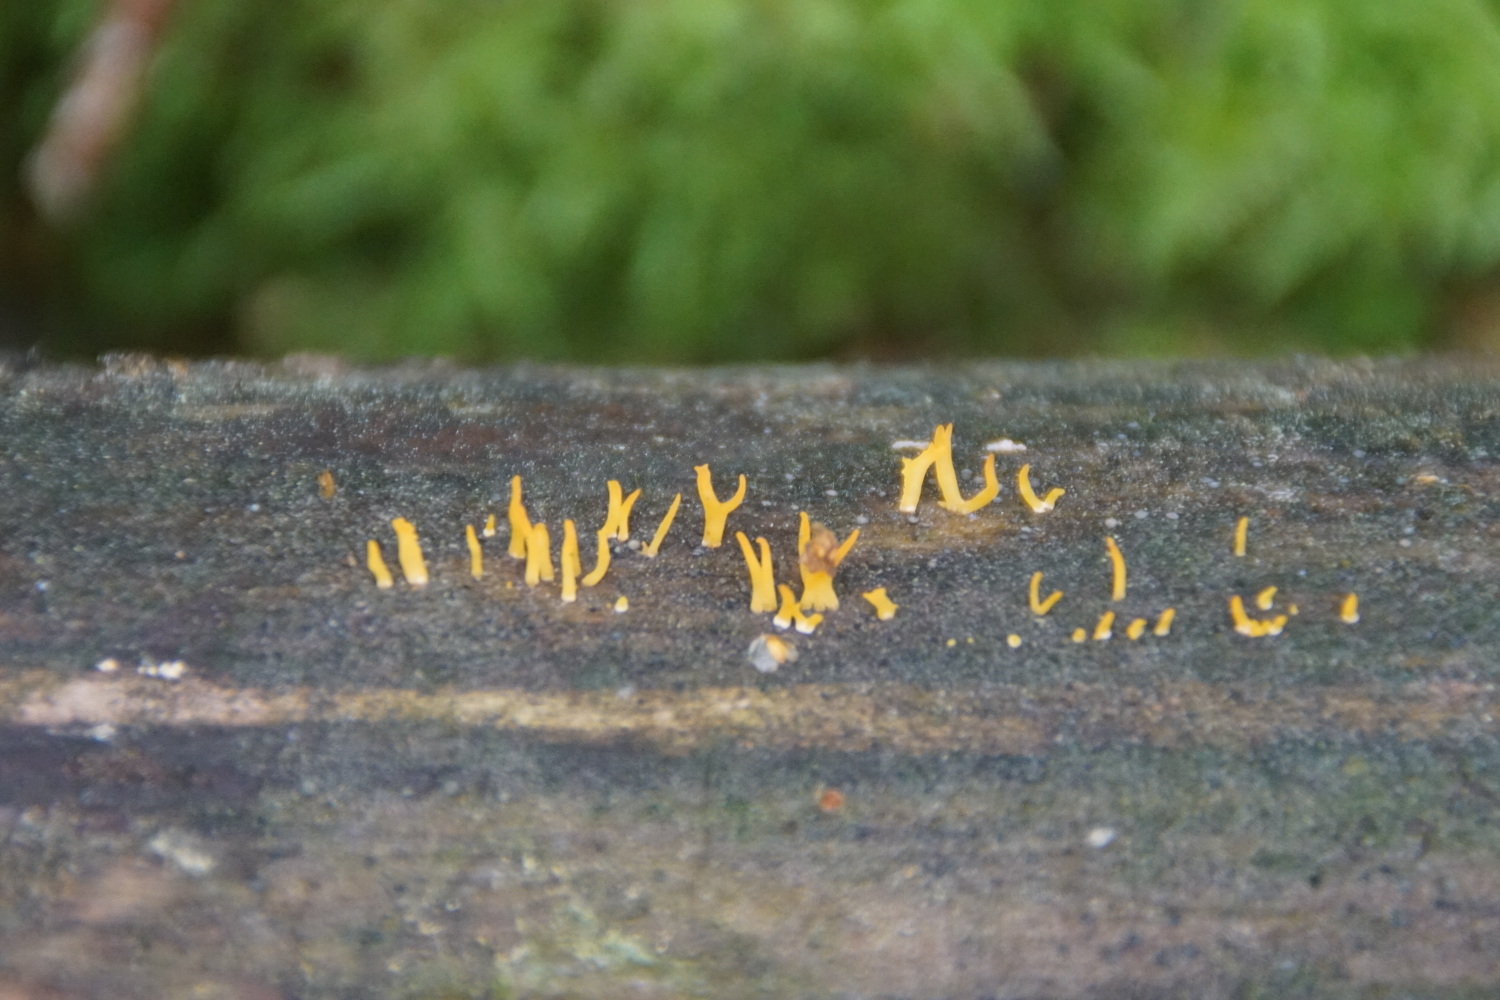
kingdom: Fungi
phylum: Basidiomycota
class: Dacrymycetes
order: Dacrymycetales
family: Dacrymycetaceae
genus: Calocera
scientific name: Calocera cornea
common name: liden guldgaffel
